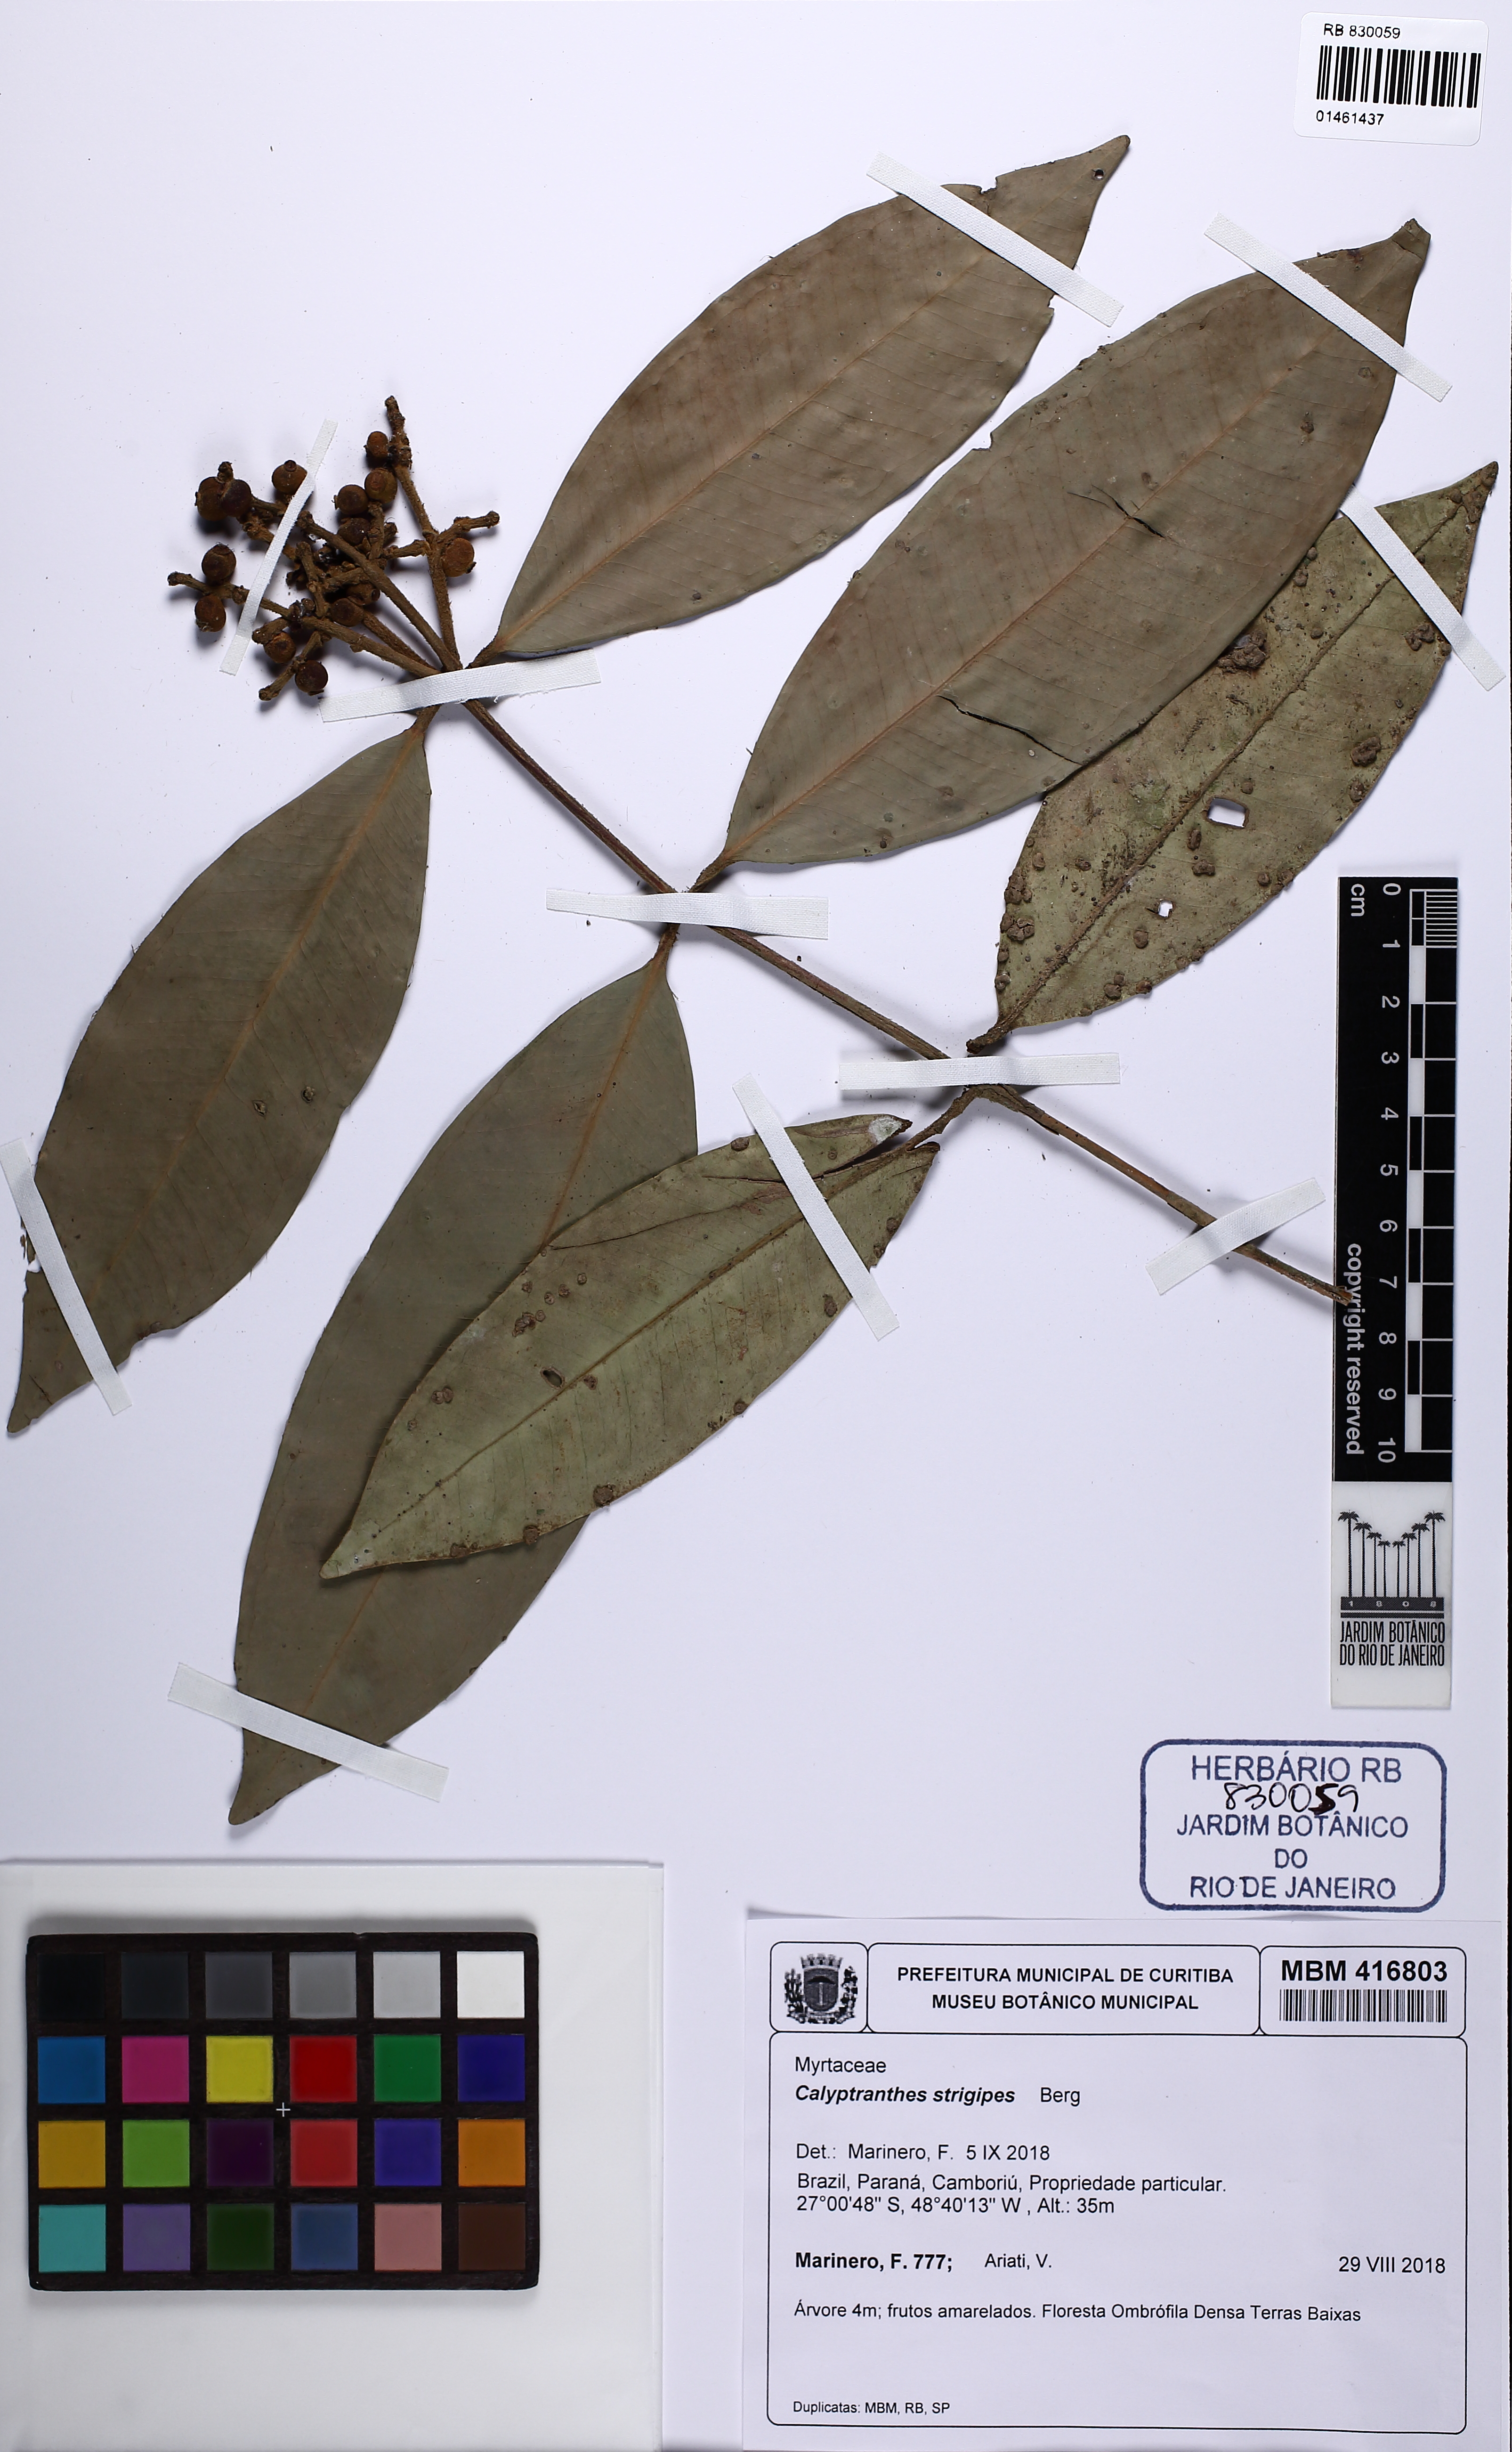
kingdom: Plantae
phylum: Tracheophyta
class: Magnoliopsida
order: Myrtales
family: Myrtaceae
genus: Myrcia
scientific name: Myrcia strigosa
